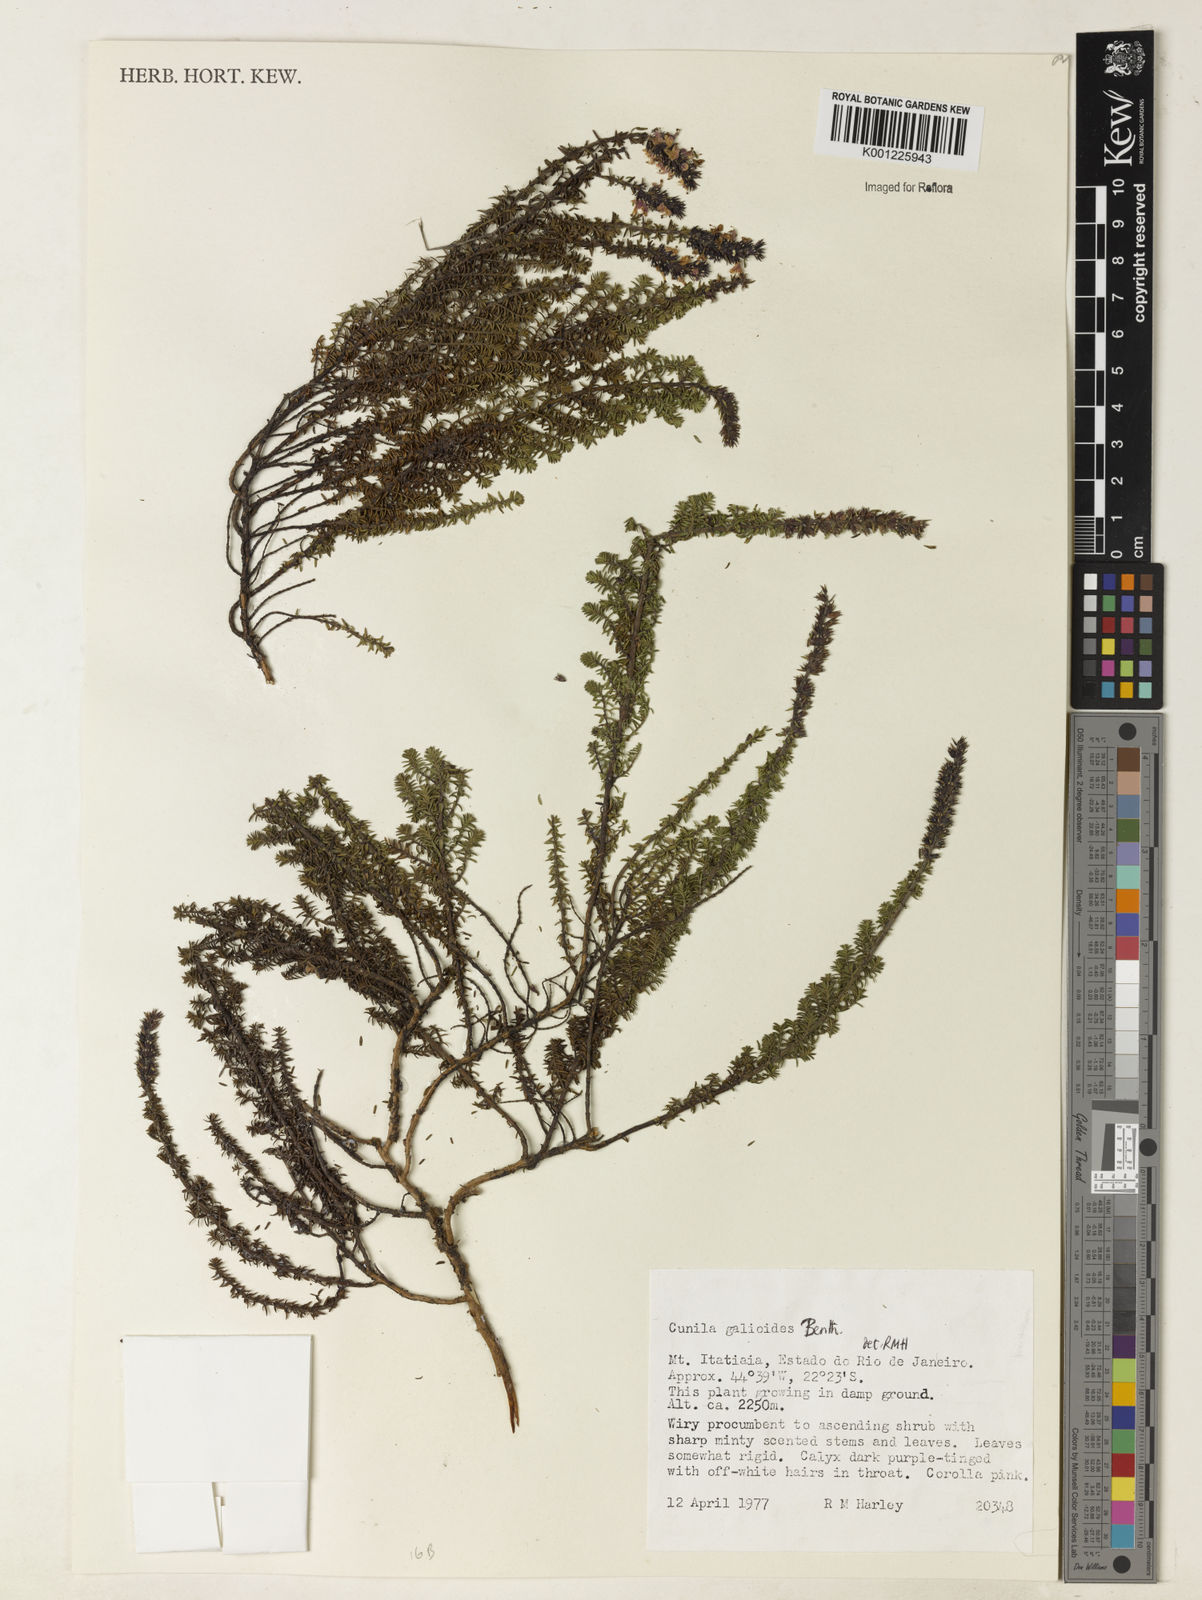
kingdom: Plantae
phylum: Tracheophyta
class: Magnoliopsida
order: Lamiales
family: Lamiaceae
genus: Cunila
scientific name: Cunila galioides
